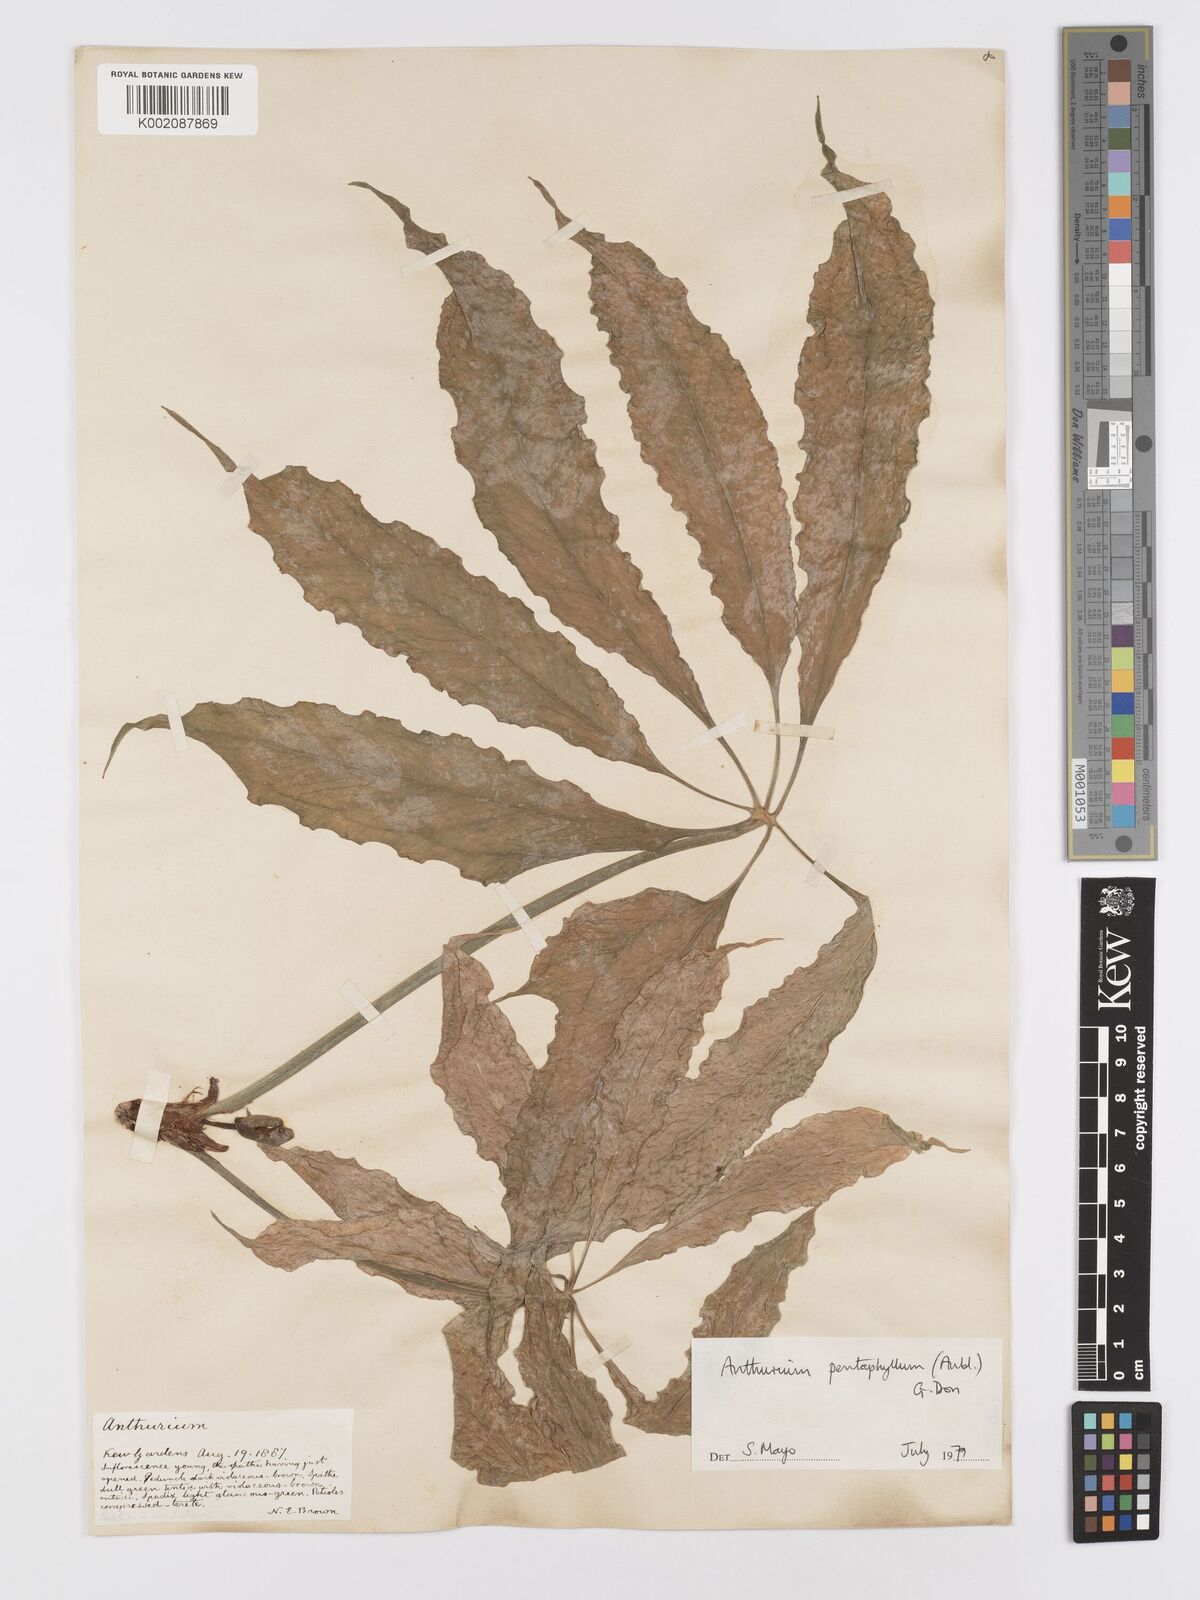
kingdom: Plantae
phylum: Tracheophyta
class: Liliopsida
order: Alismatales
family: Araceae
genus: Anthurium
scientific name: Anthurium pentaphyllum
